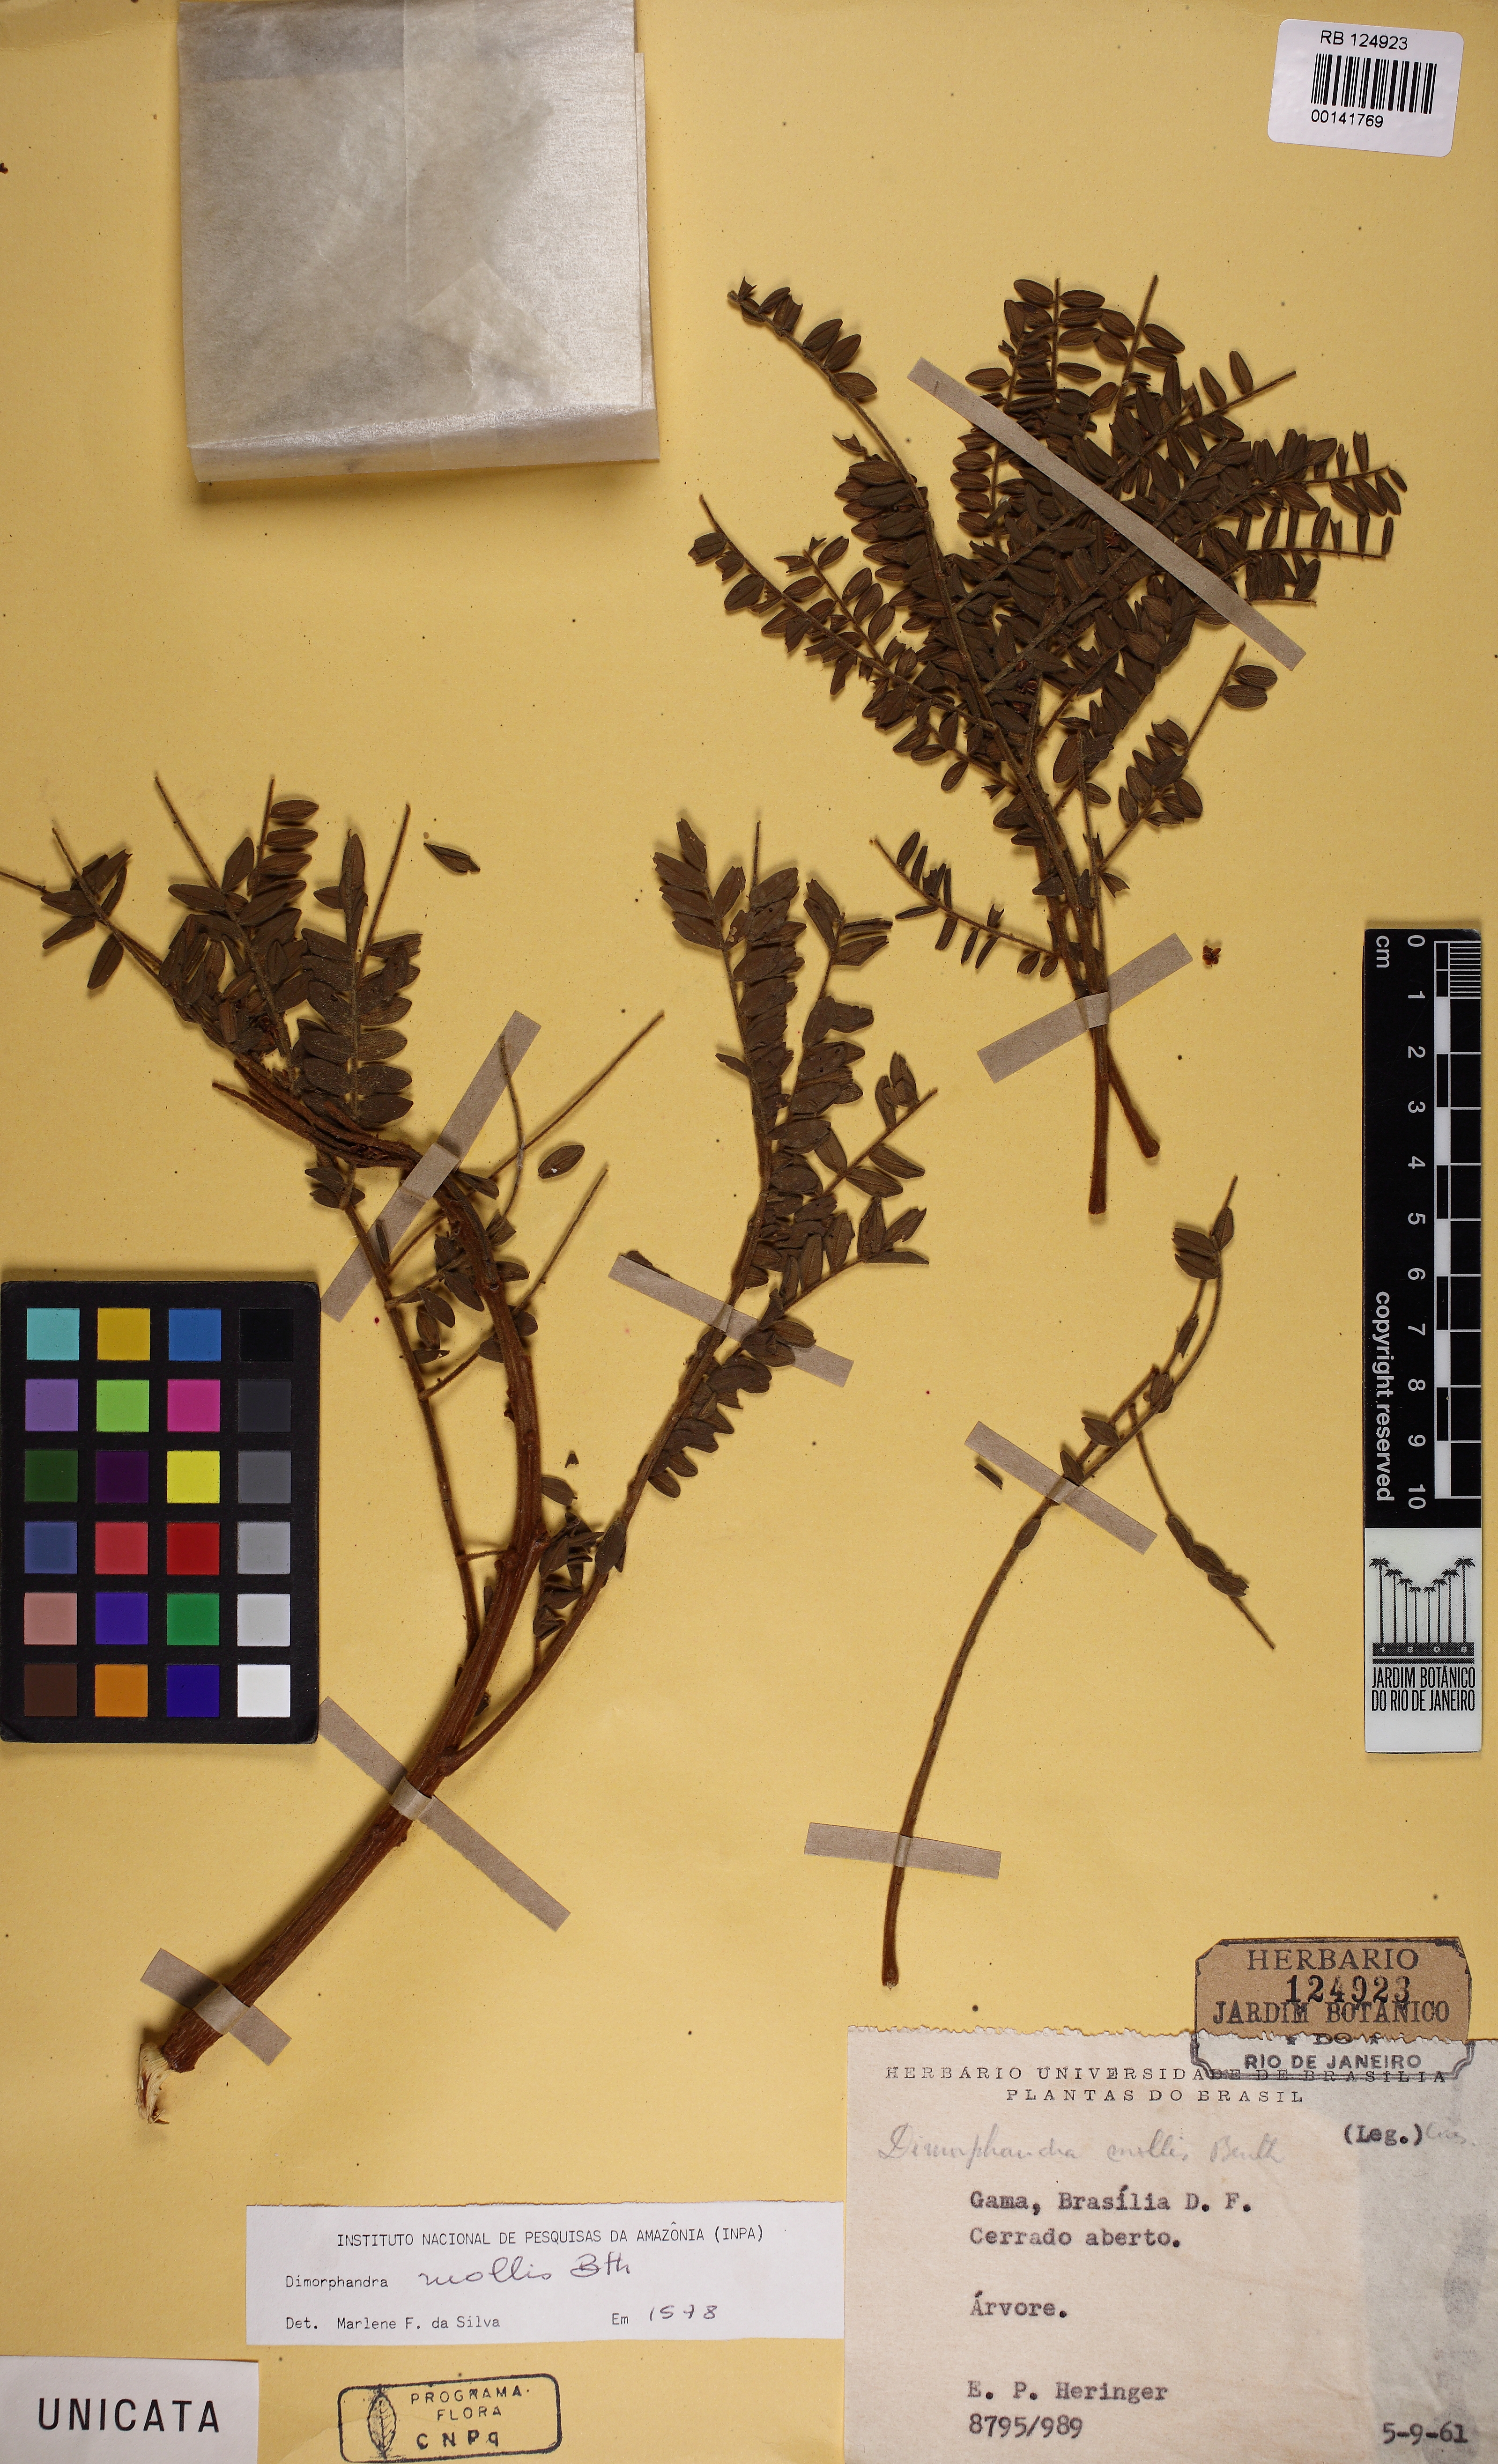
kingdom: Plantae
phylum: Tracheophyta
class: Magnoliopsida
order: Fabales
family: Fabaceae
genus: Dimorphandra
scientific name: Dimorphandra mollis
